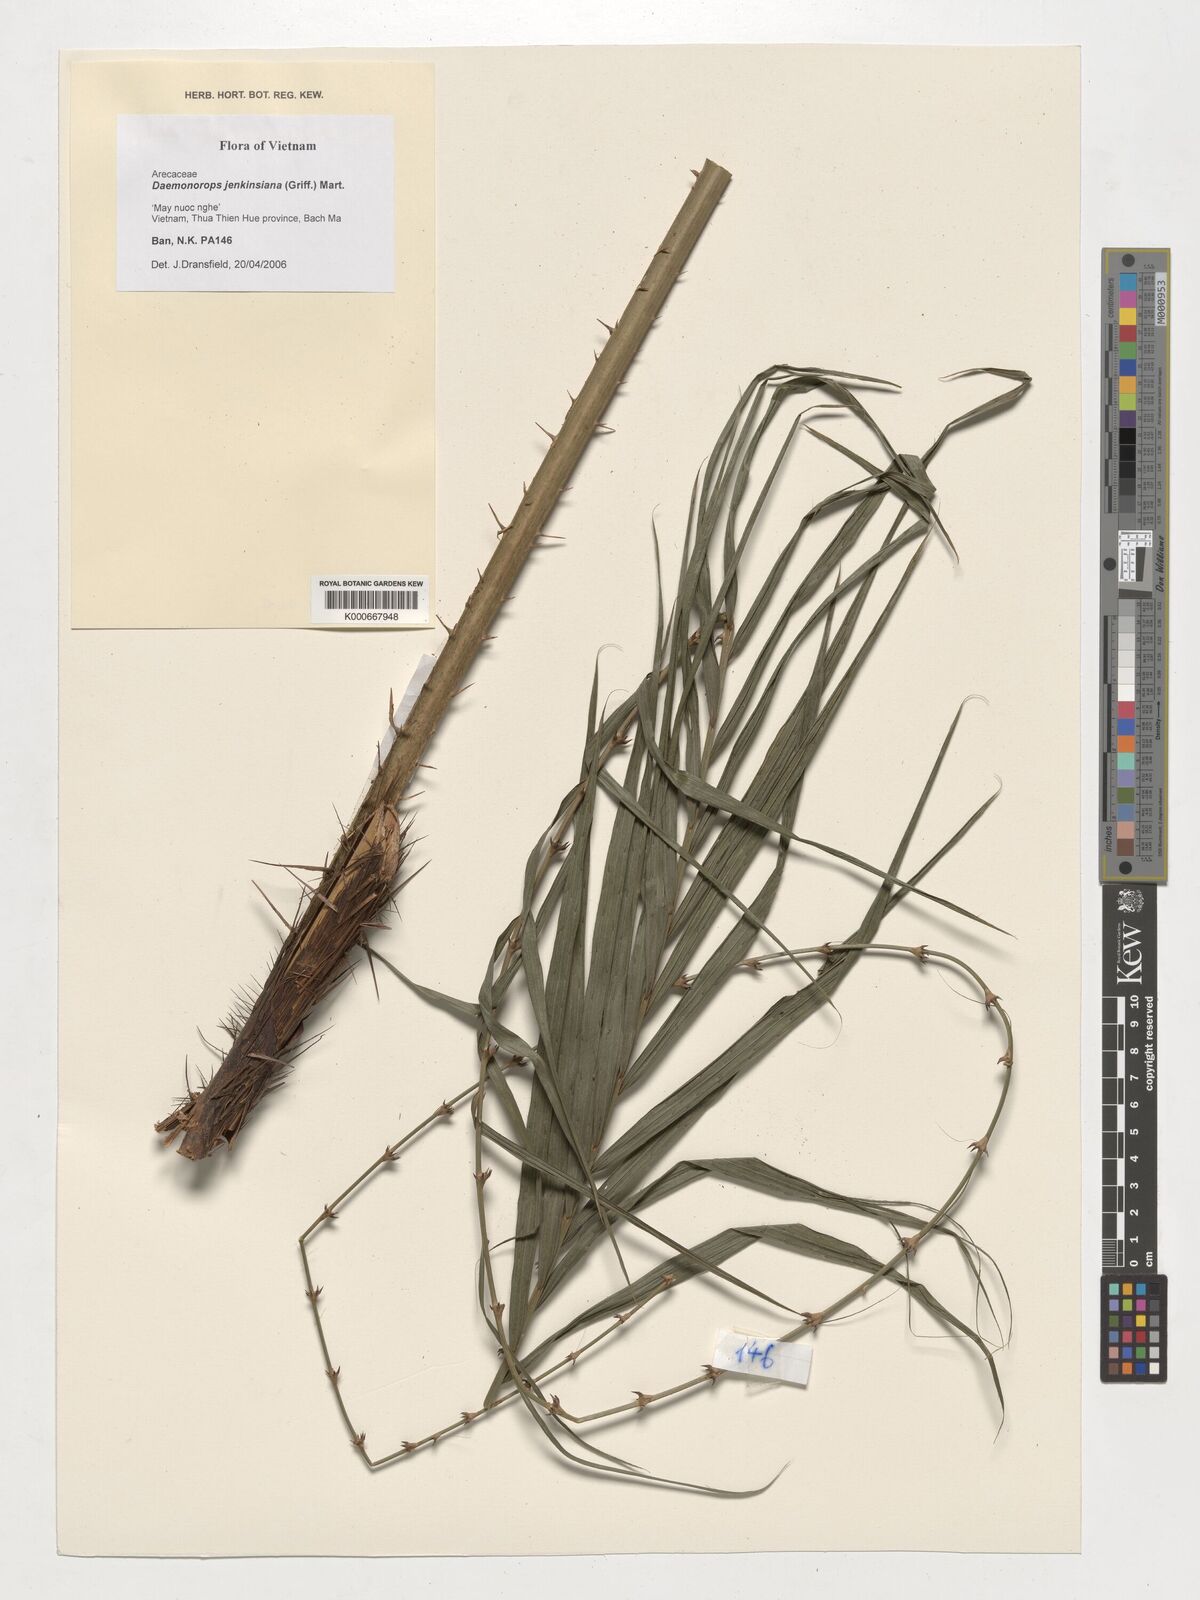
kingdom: Plantae
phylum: Tracheophyta
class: Liliopsida
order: Arecales
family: Arecaceae
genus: Calamus
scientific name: Calamus melanochaetes
